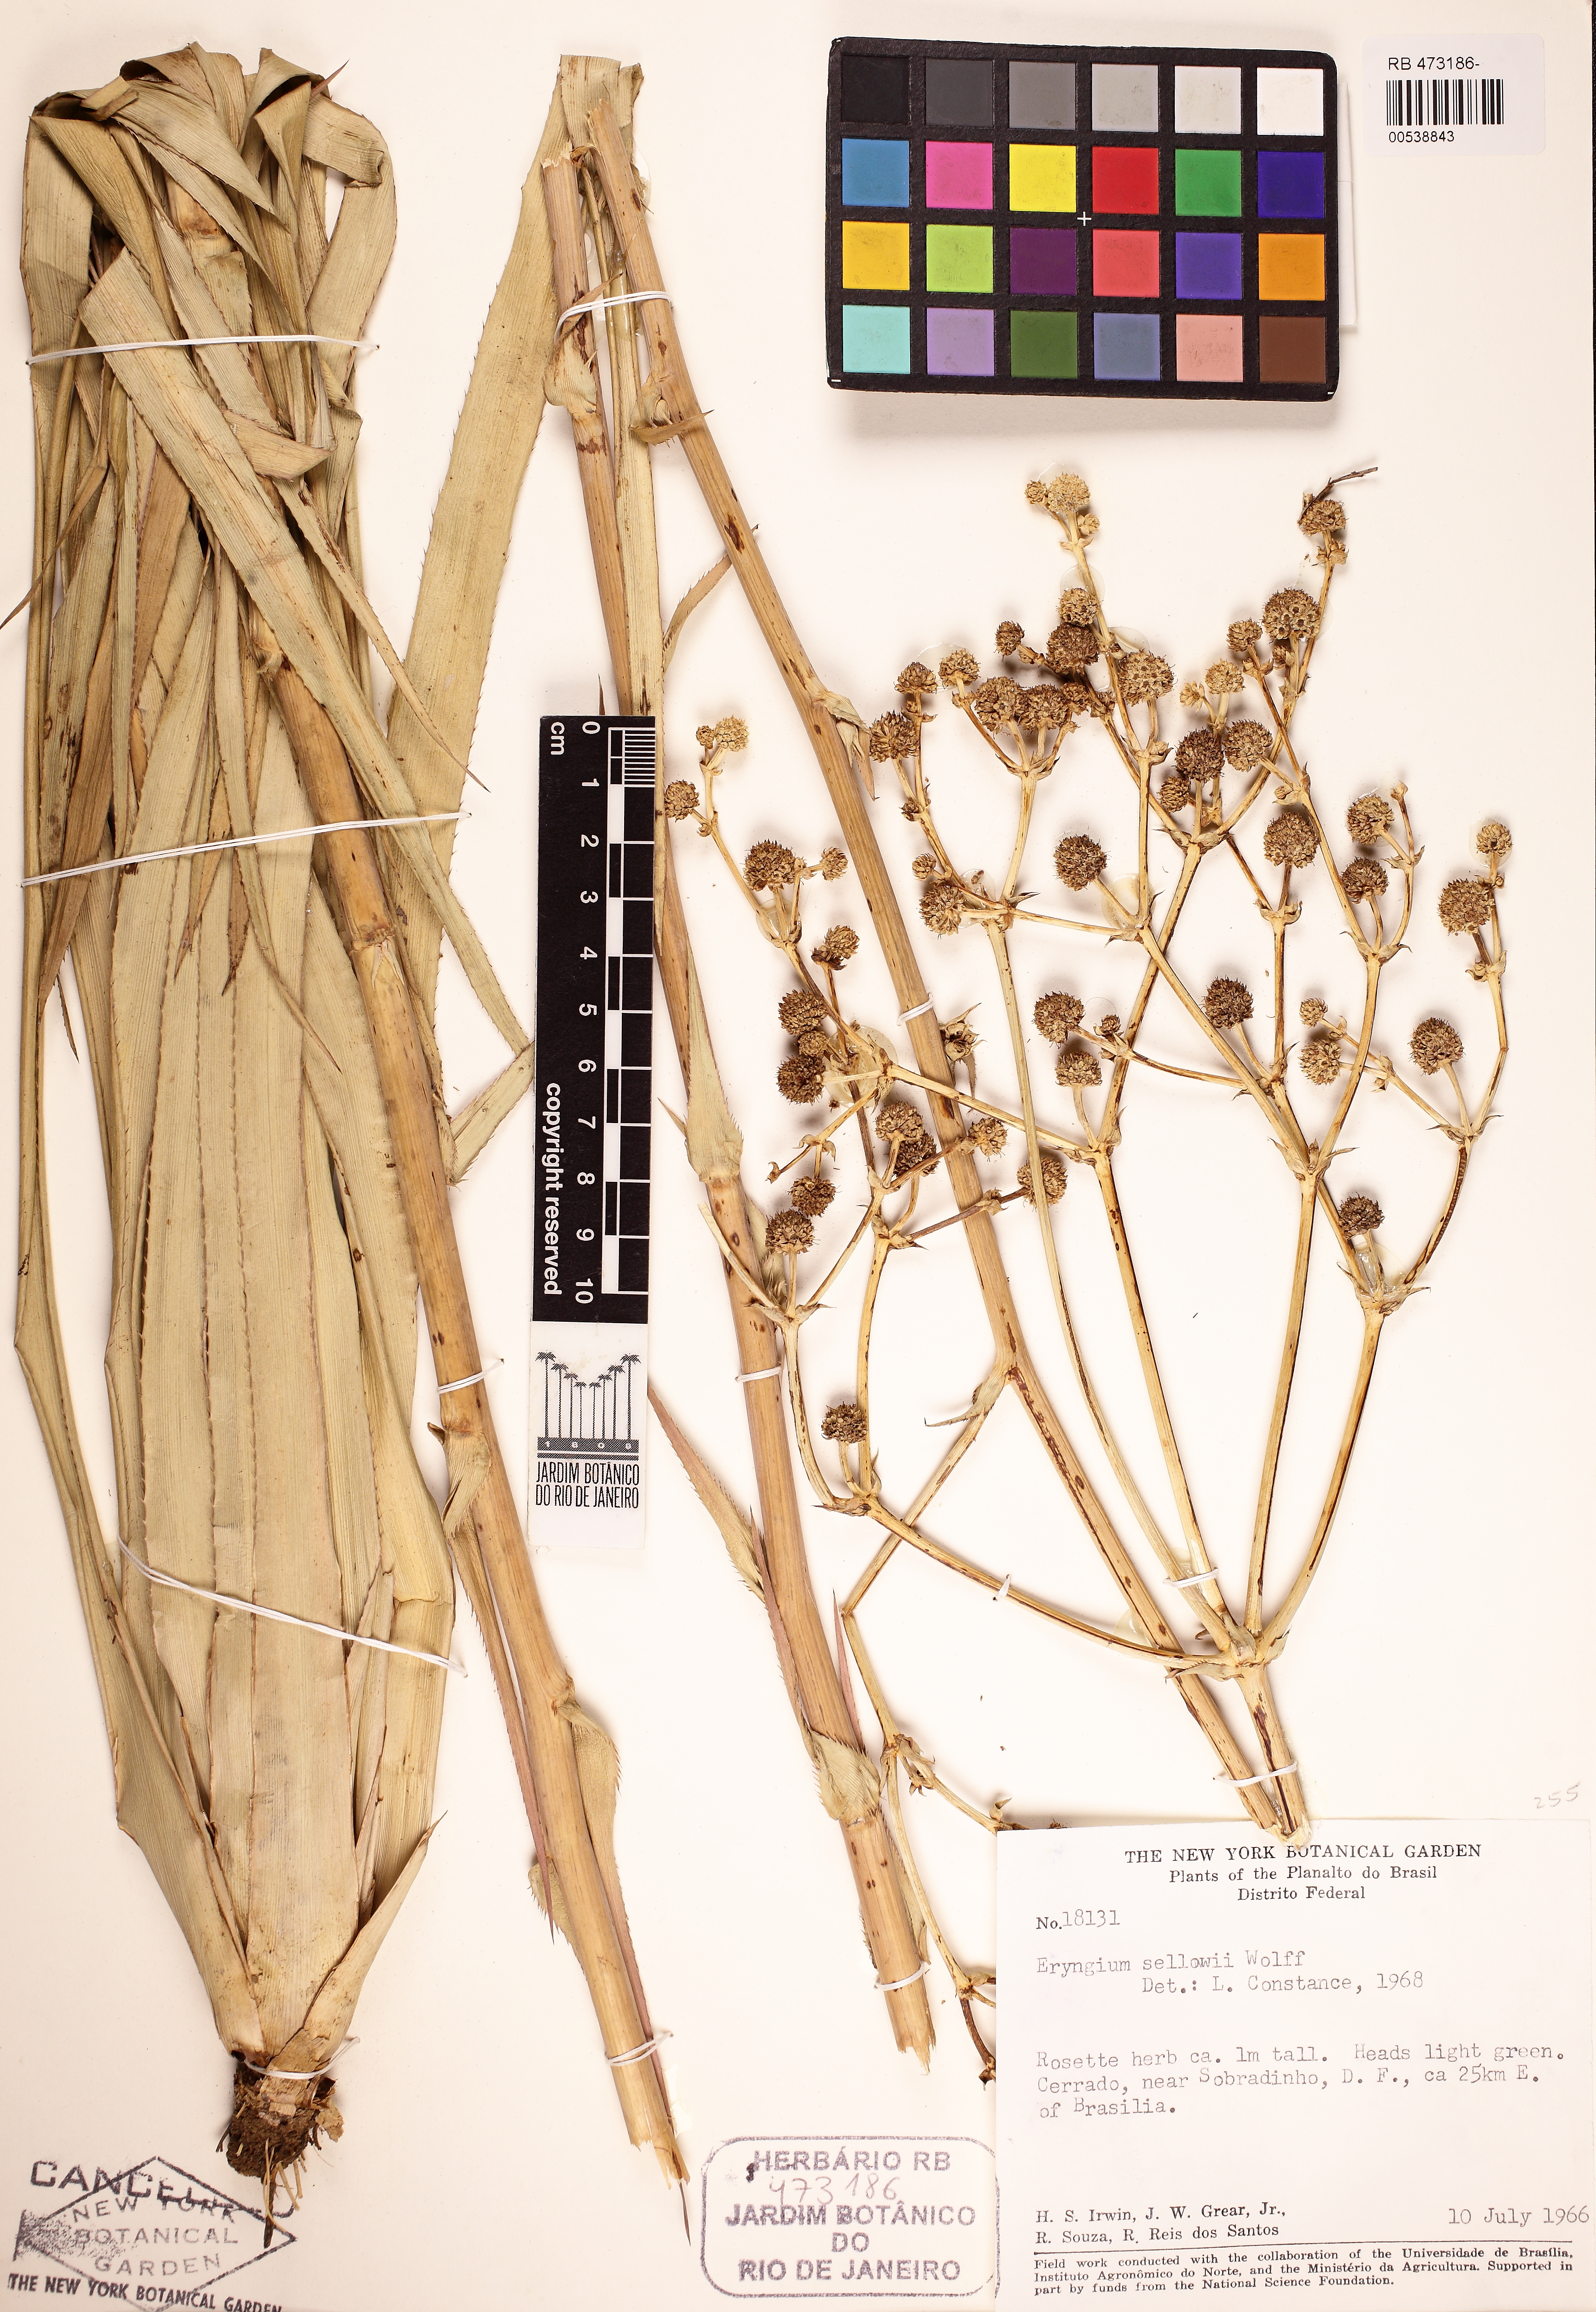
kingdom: Plantae
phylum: Tracheophyta
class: Magnoliopsida
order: Apiales
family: Apiaceae
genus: Eryngium
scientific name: Eryngium brasiliense
